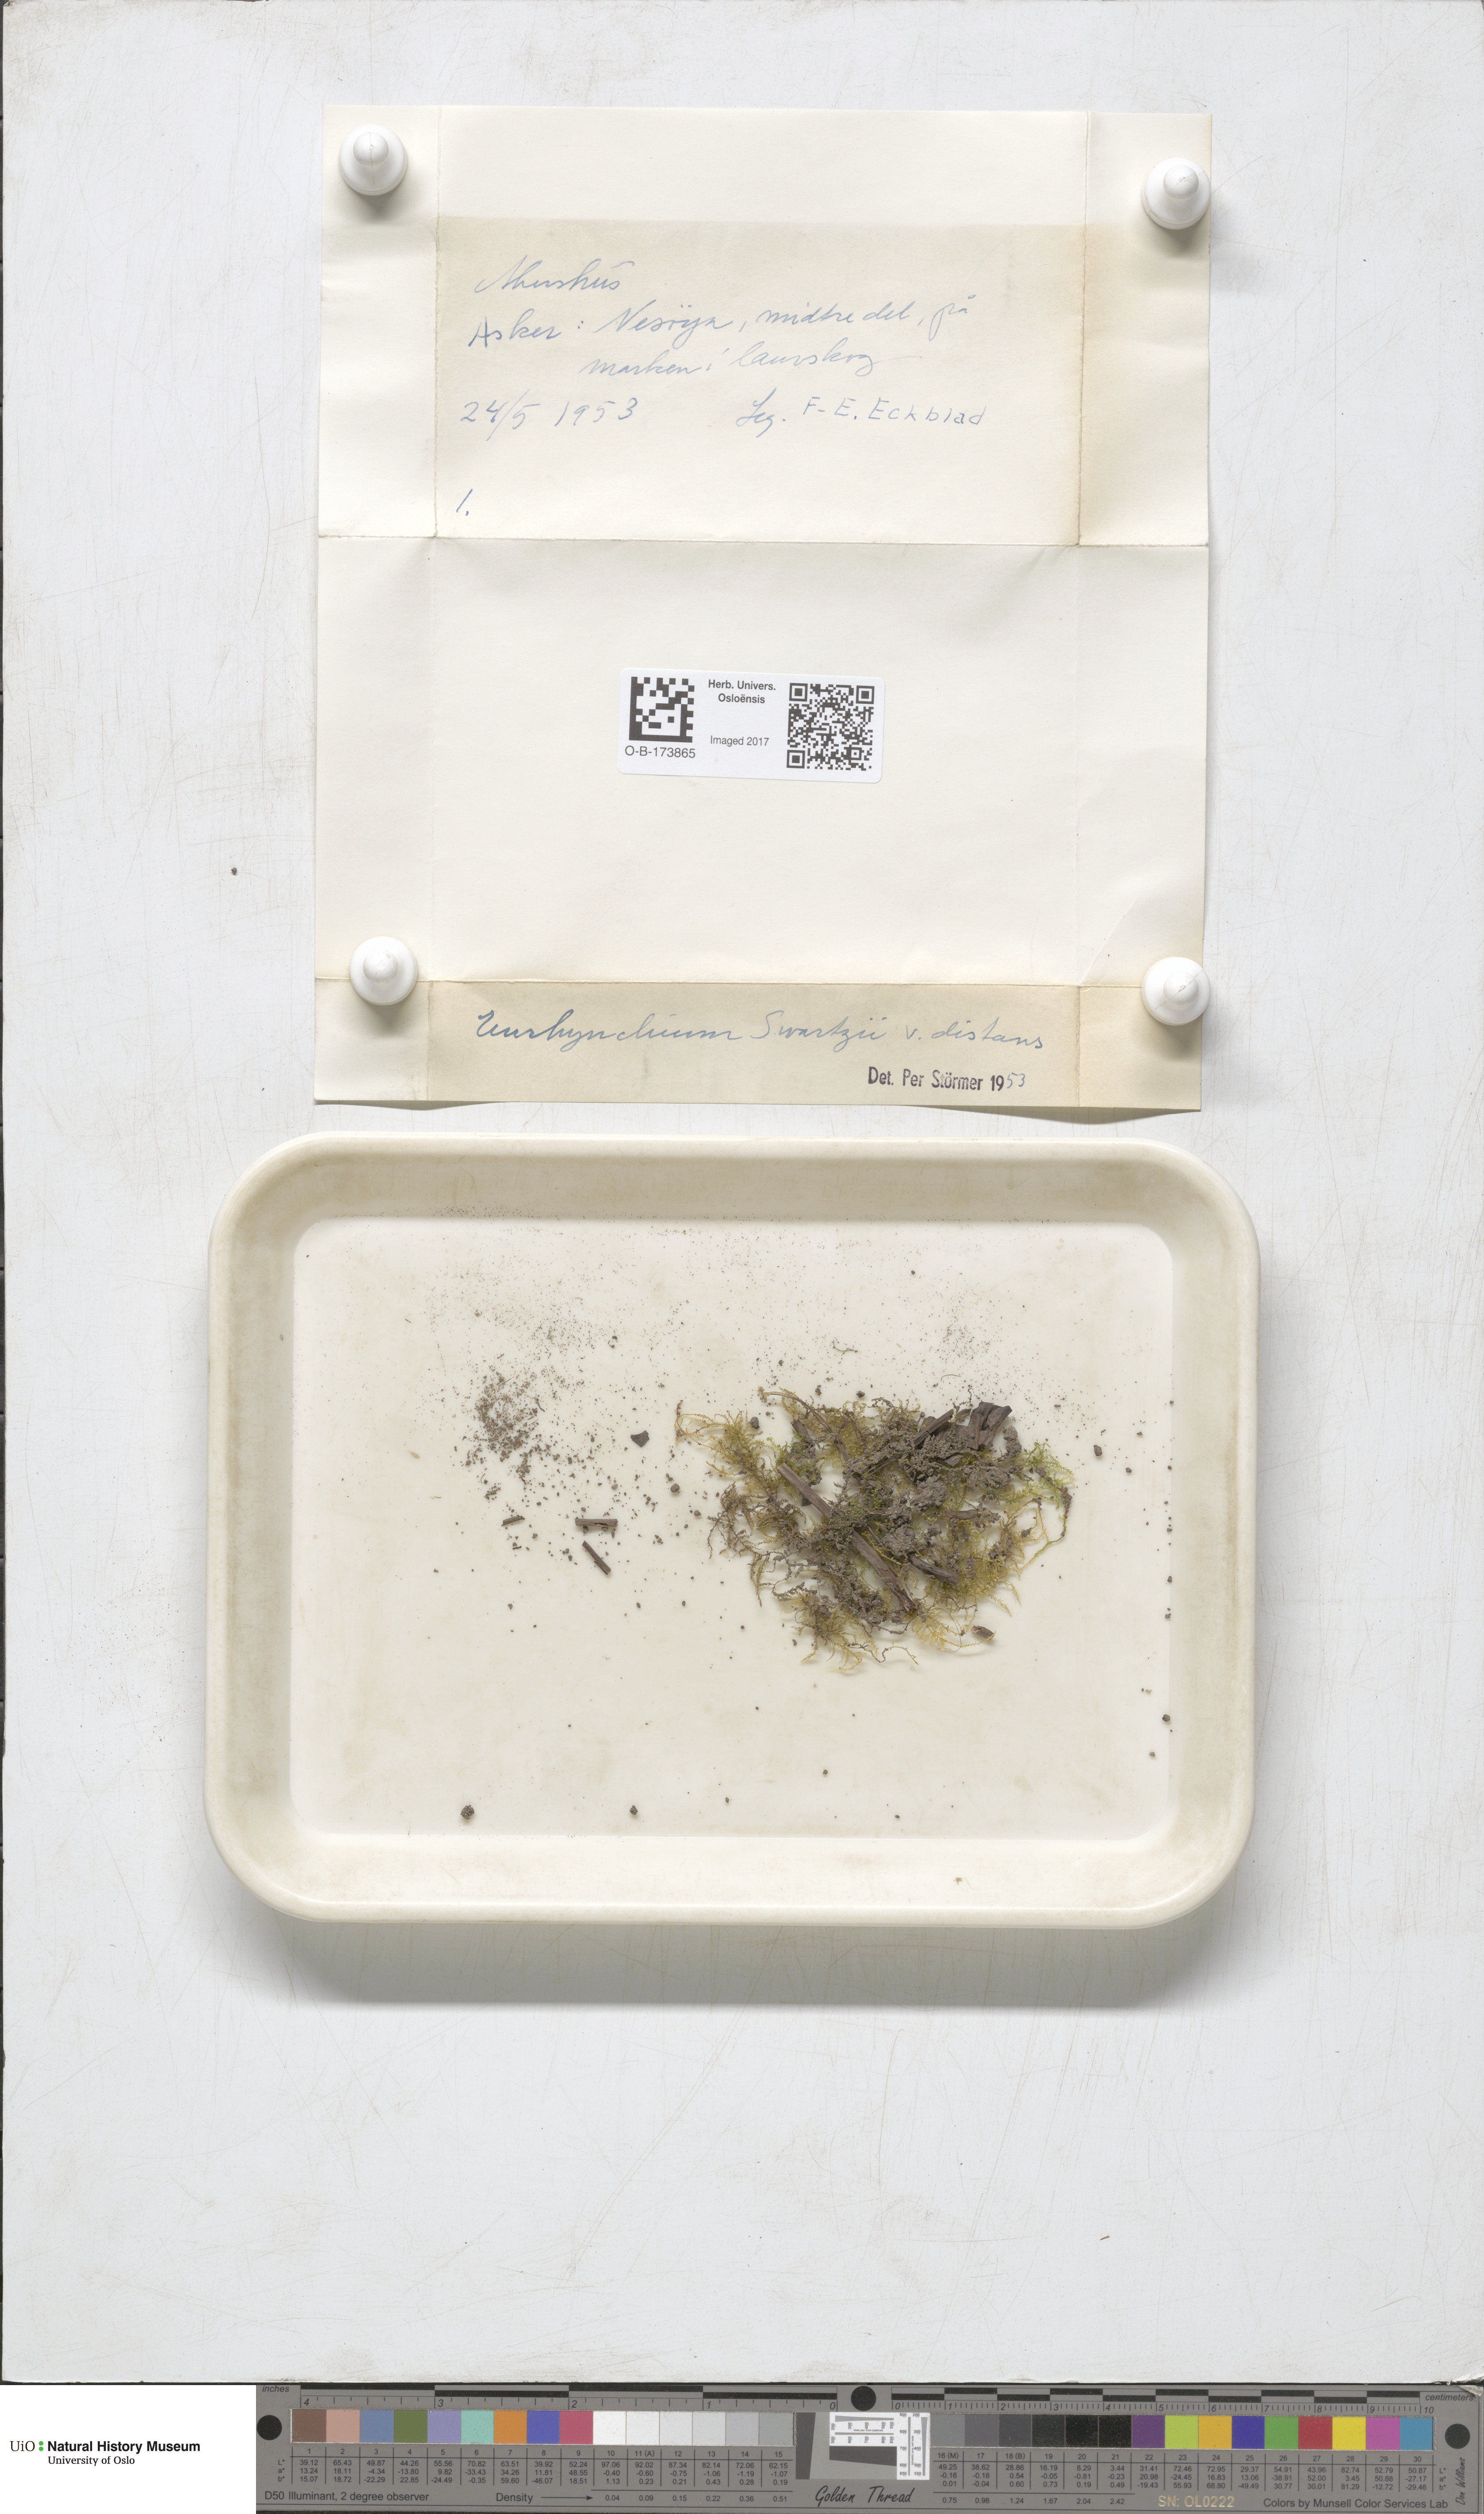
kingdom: Plantae
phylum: Bryophyta
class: Bryopsida
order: Hypnales
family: Brachytheciaceae
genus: Oxyrrhynchium
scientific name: Oxyrrhynchium hians
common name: Spreading beaked moss
